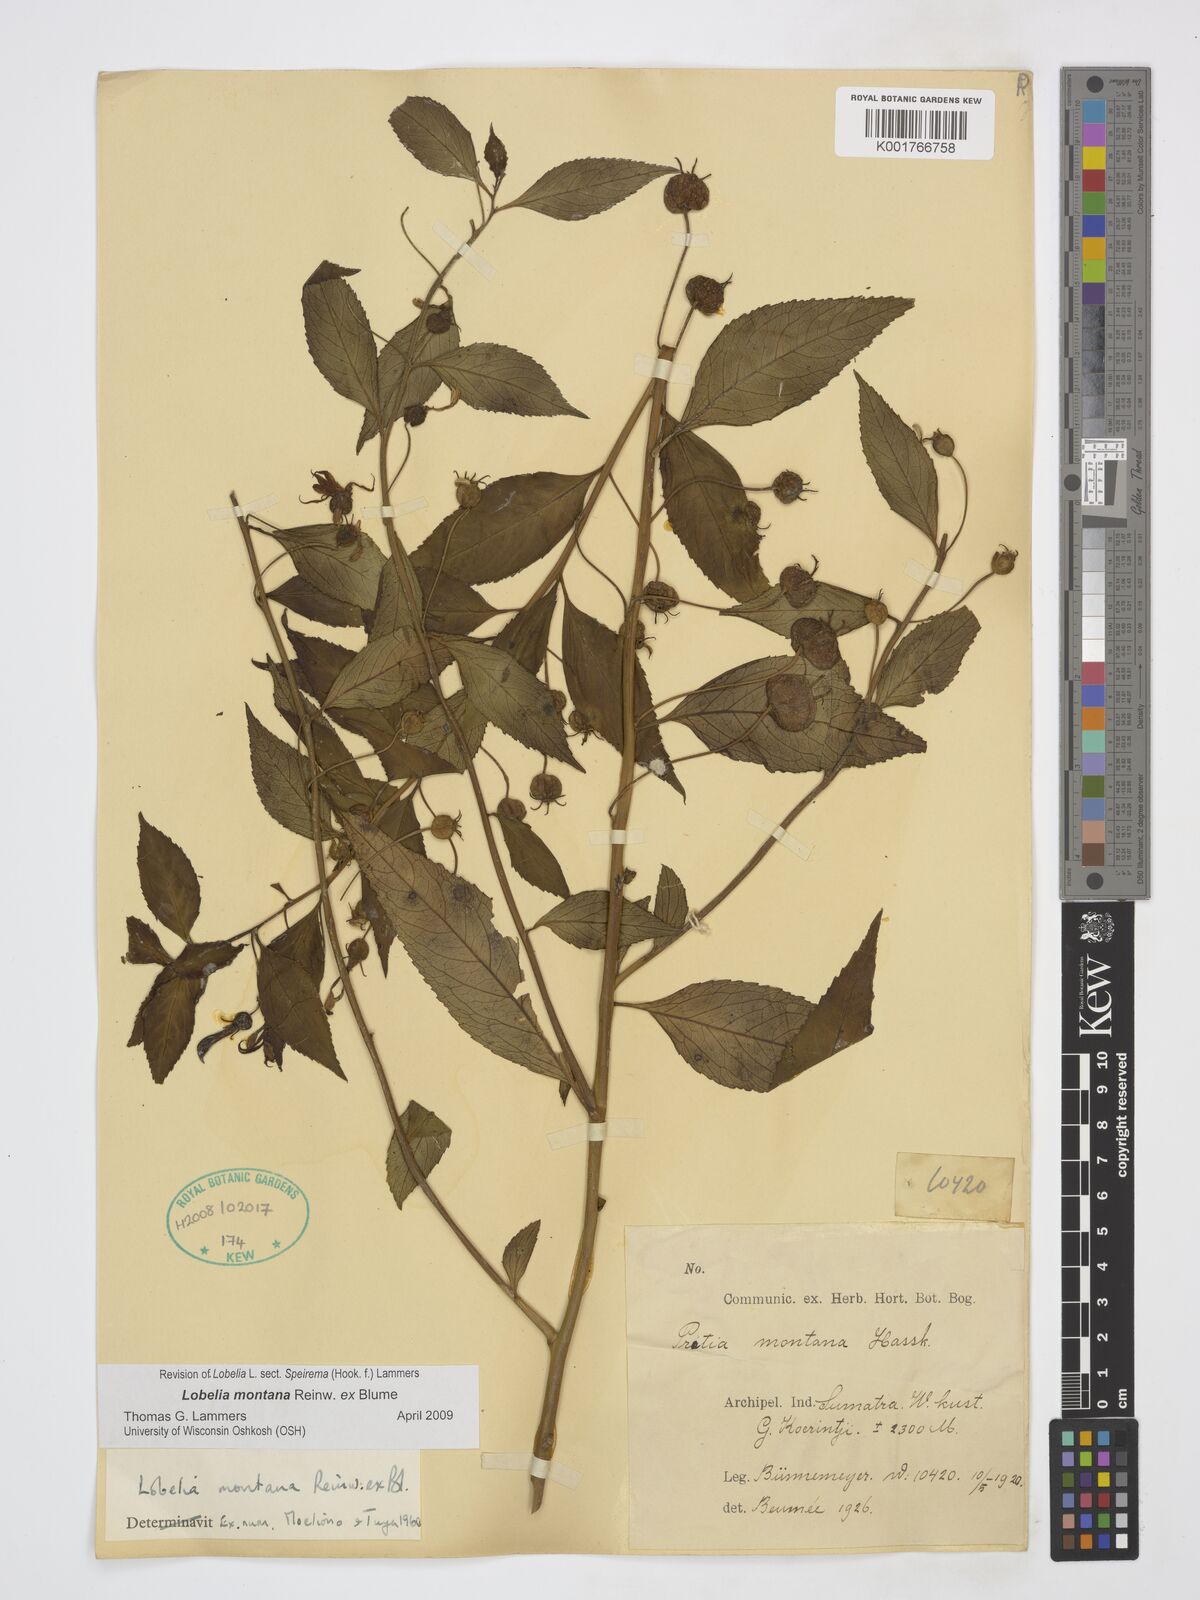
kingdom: Plantae
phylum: Tracheophyta
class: Magnoliopsida
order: Asterales
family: Campanulaceae
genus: Lobelia
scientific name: Lobelia montana
